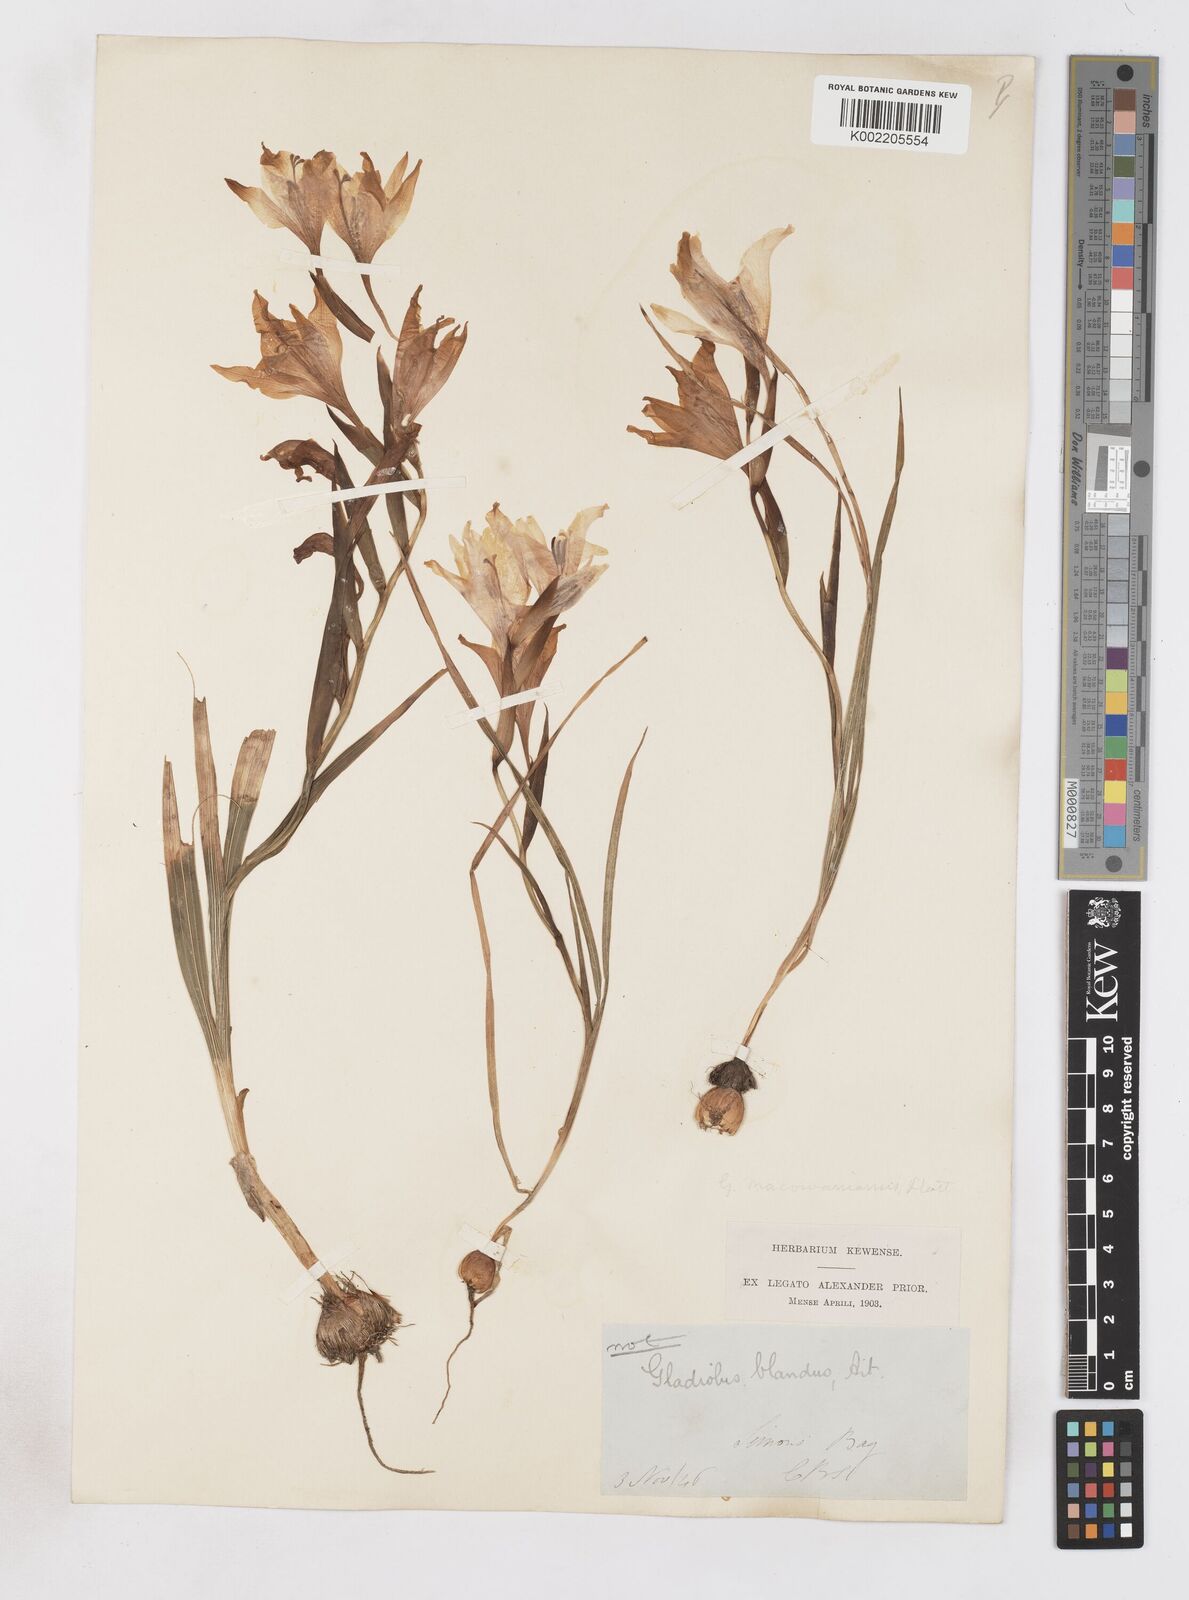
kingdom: Plantae
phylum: Tracheophyta
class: Liliopsida
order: Asparagales
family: Iridaceae
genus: Gladiolus
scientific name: Gladiolus carneus
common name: Painted-lady
